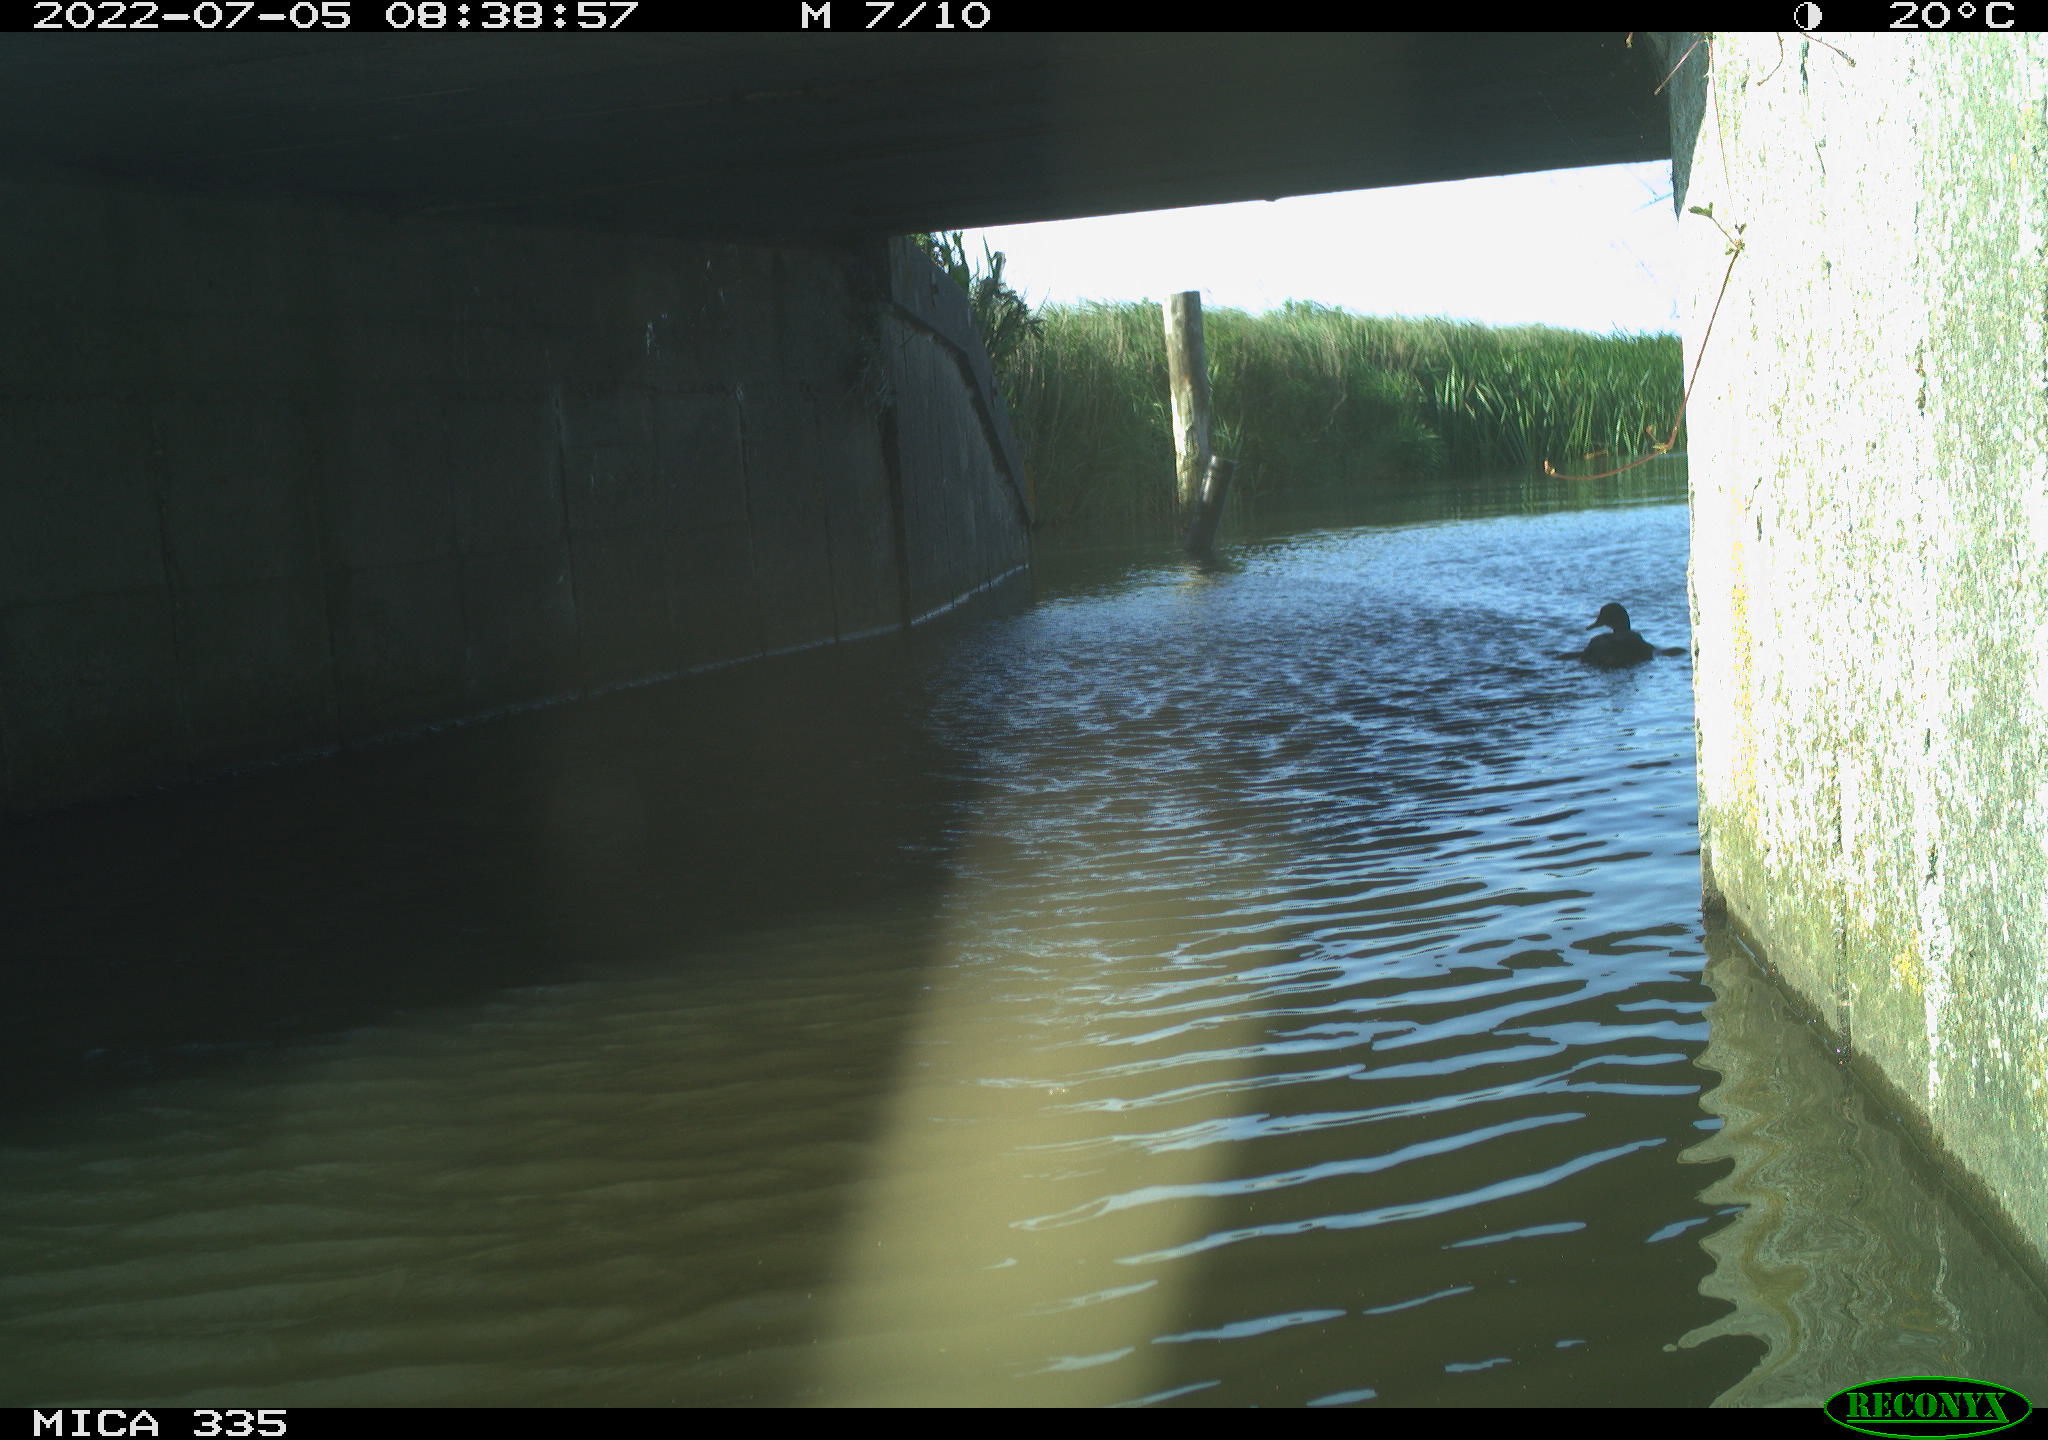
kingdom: Animalia
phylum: Chordata
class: Aves
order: Anseriformes
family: Anatidae
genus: Anas
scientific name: Anas platyrhynchos
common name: Mallard
